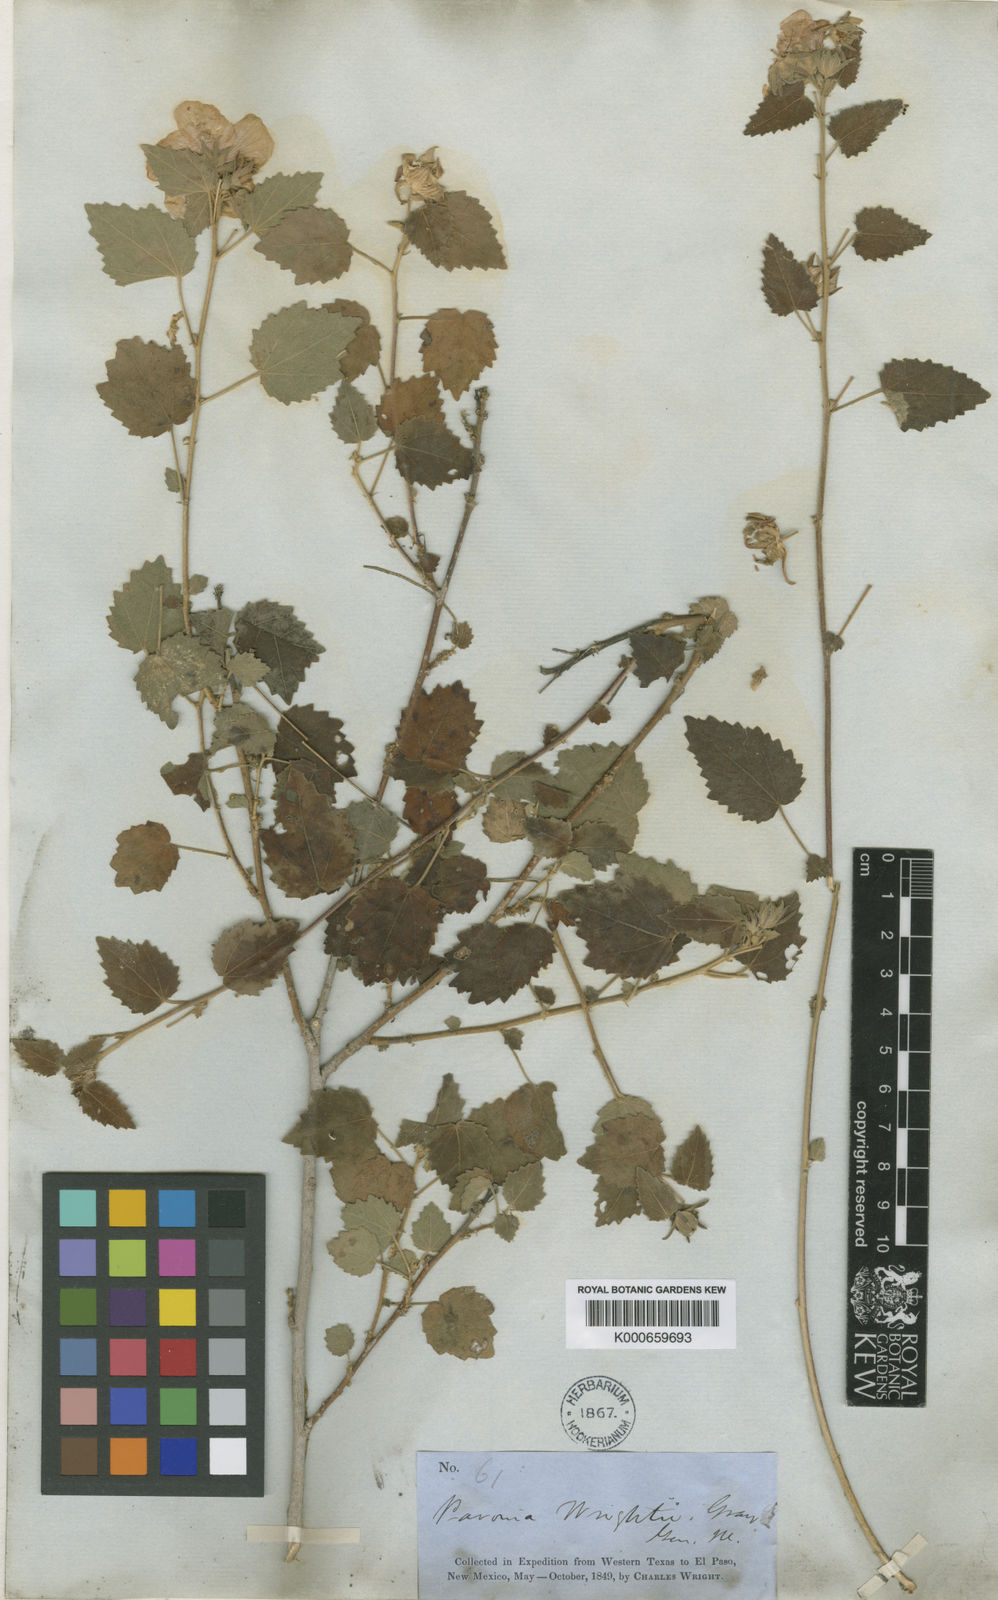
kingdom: Plantae
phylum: Tracheophyta
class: Magnoliopsida
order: Malvales
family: Malvaceae
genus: Pavonia
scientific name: Pavonia lasiopetala
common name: Texas swamp-mallow
